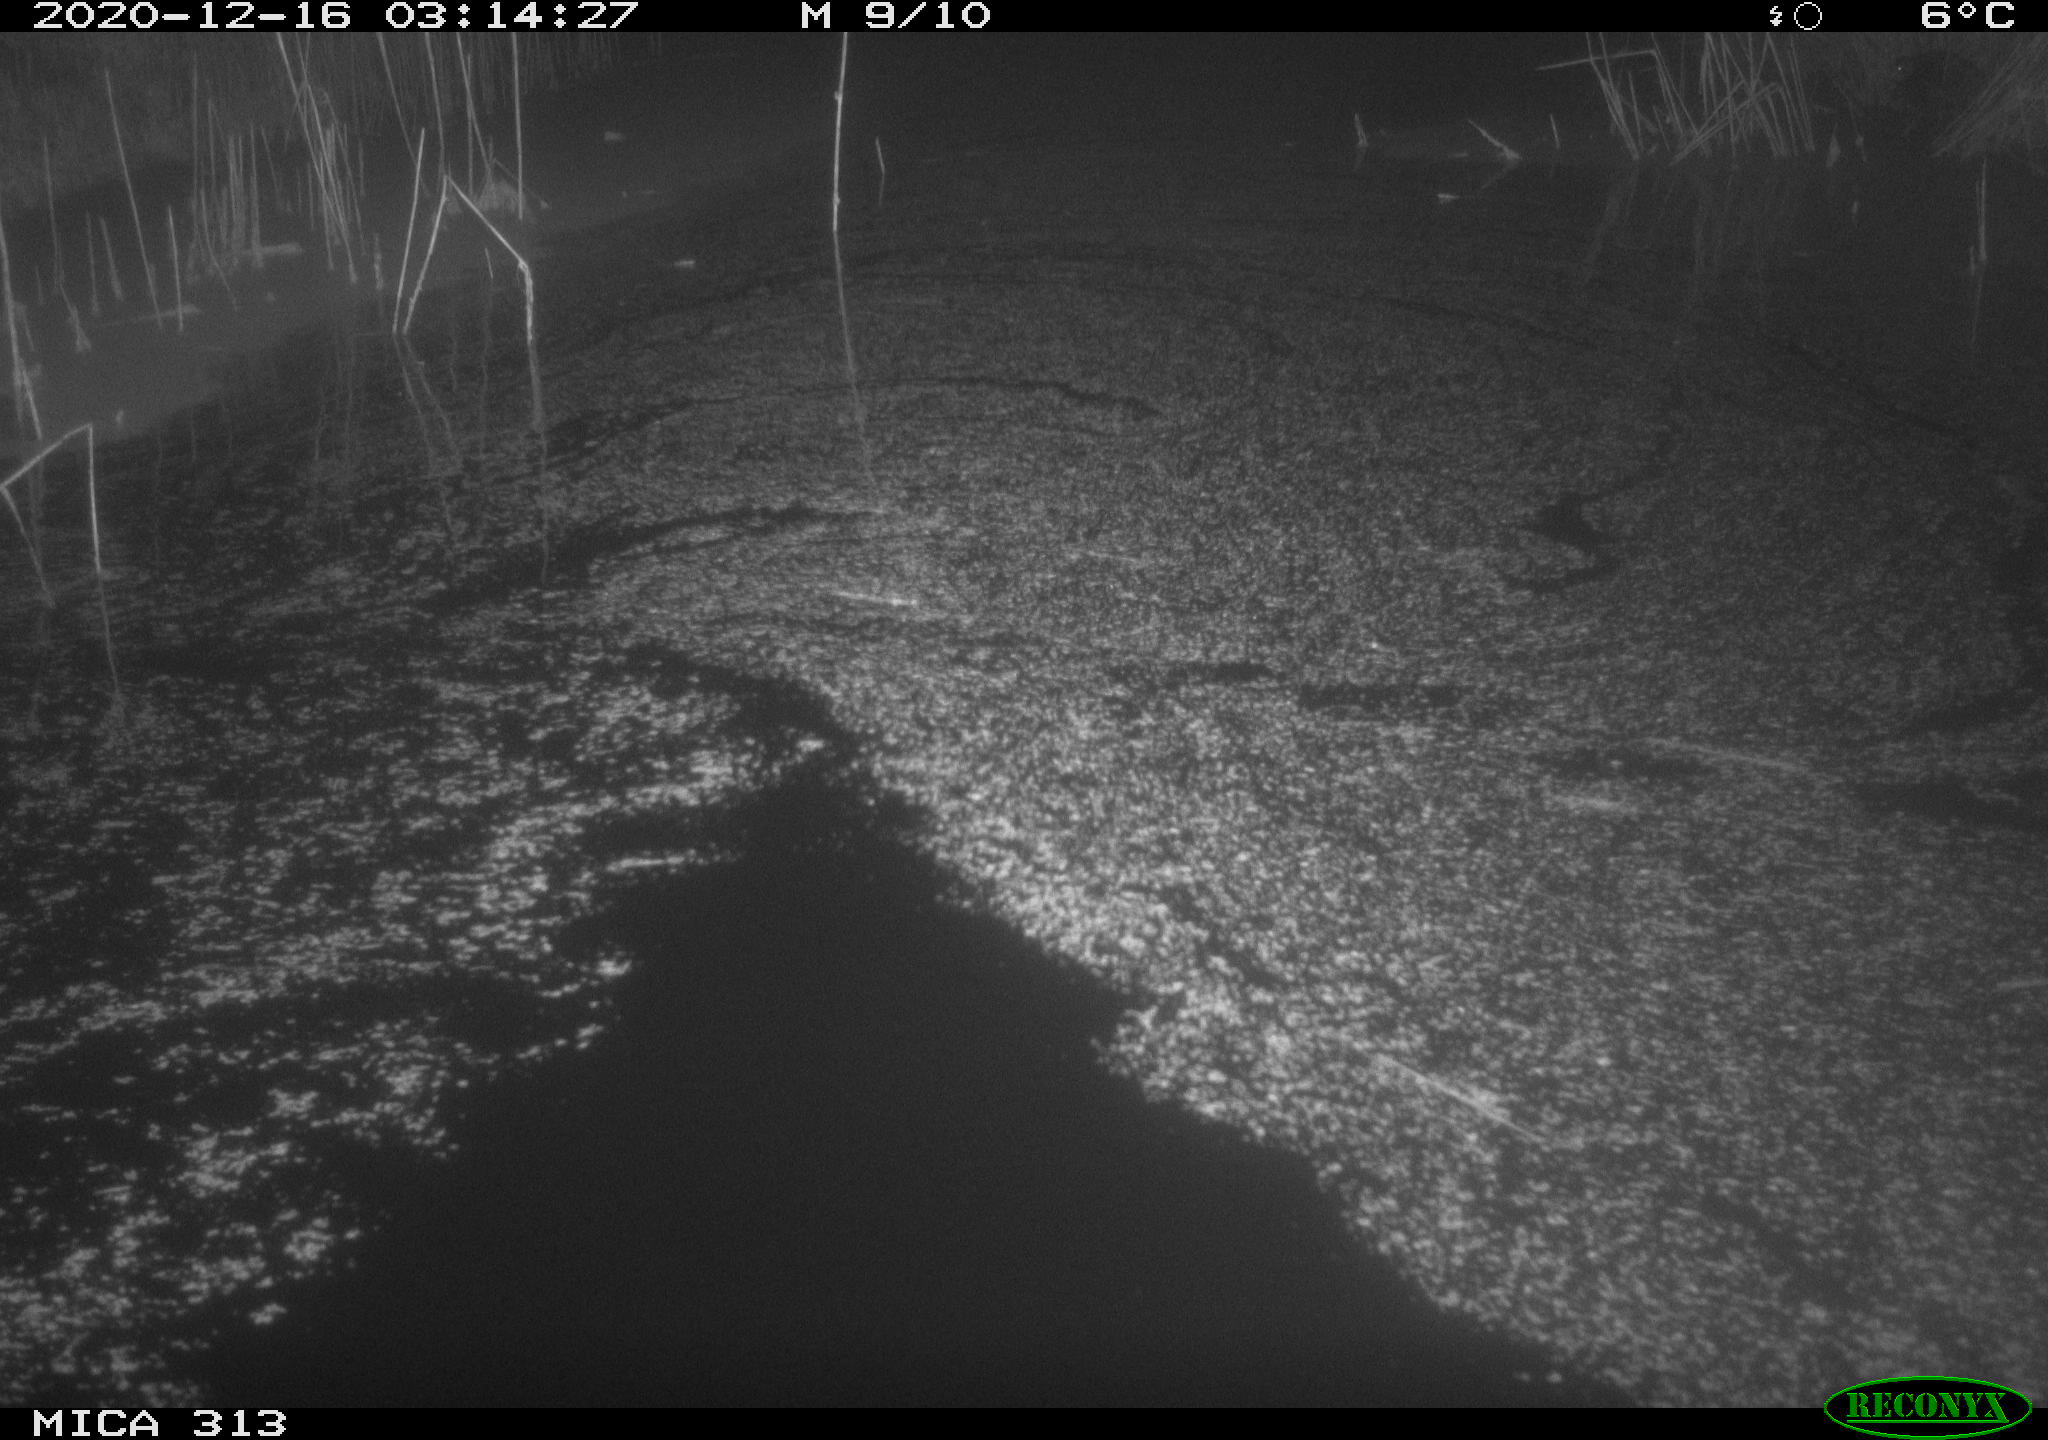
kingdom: Animalia
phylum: Chordata
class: Mammalia
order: Rodentia
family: Muridae
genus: Rattus
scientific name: Rattus norvegicus
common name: Brown rat
